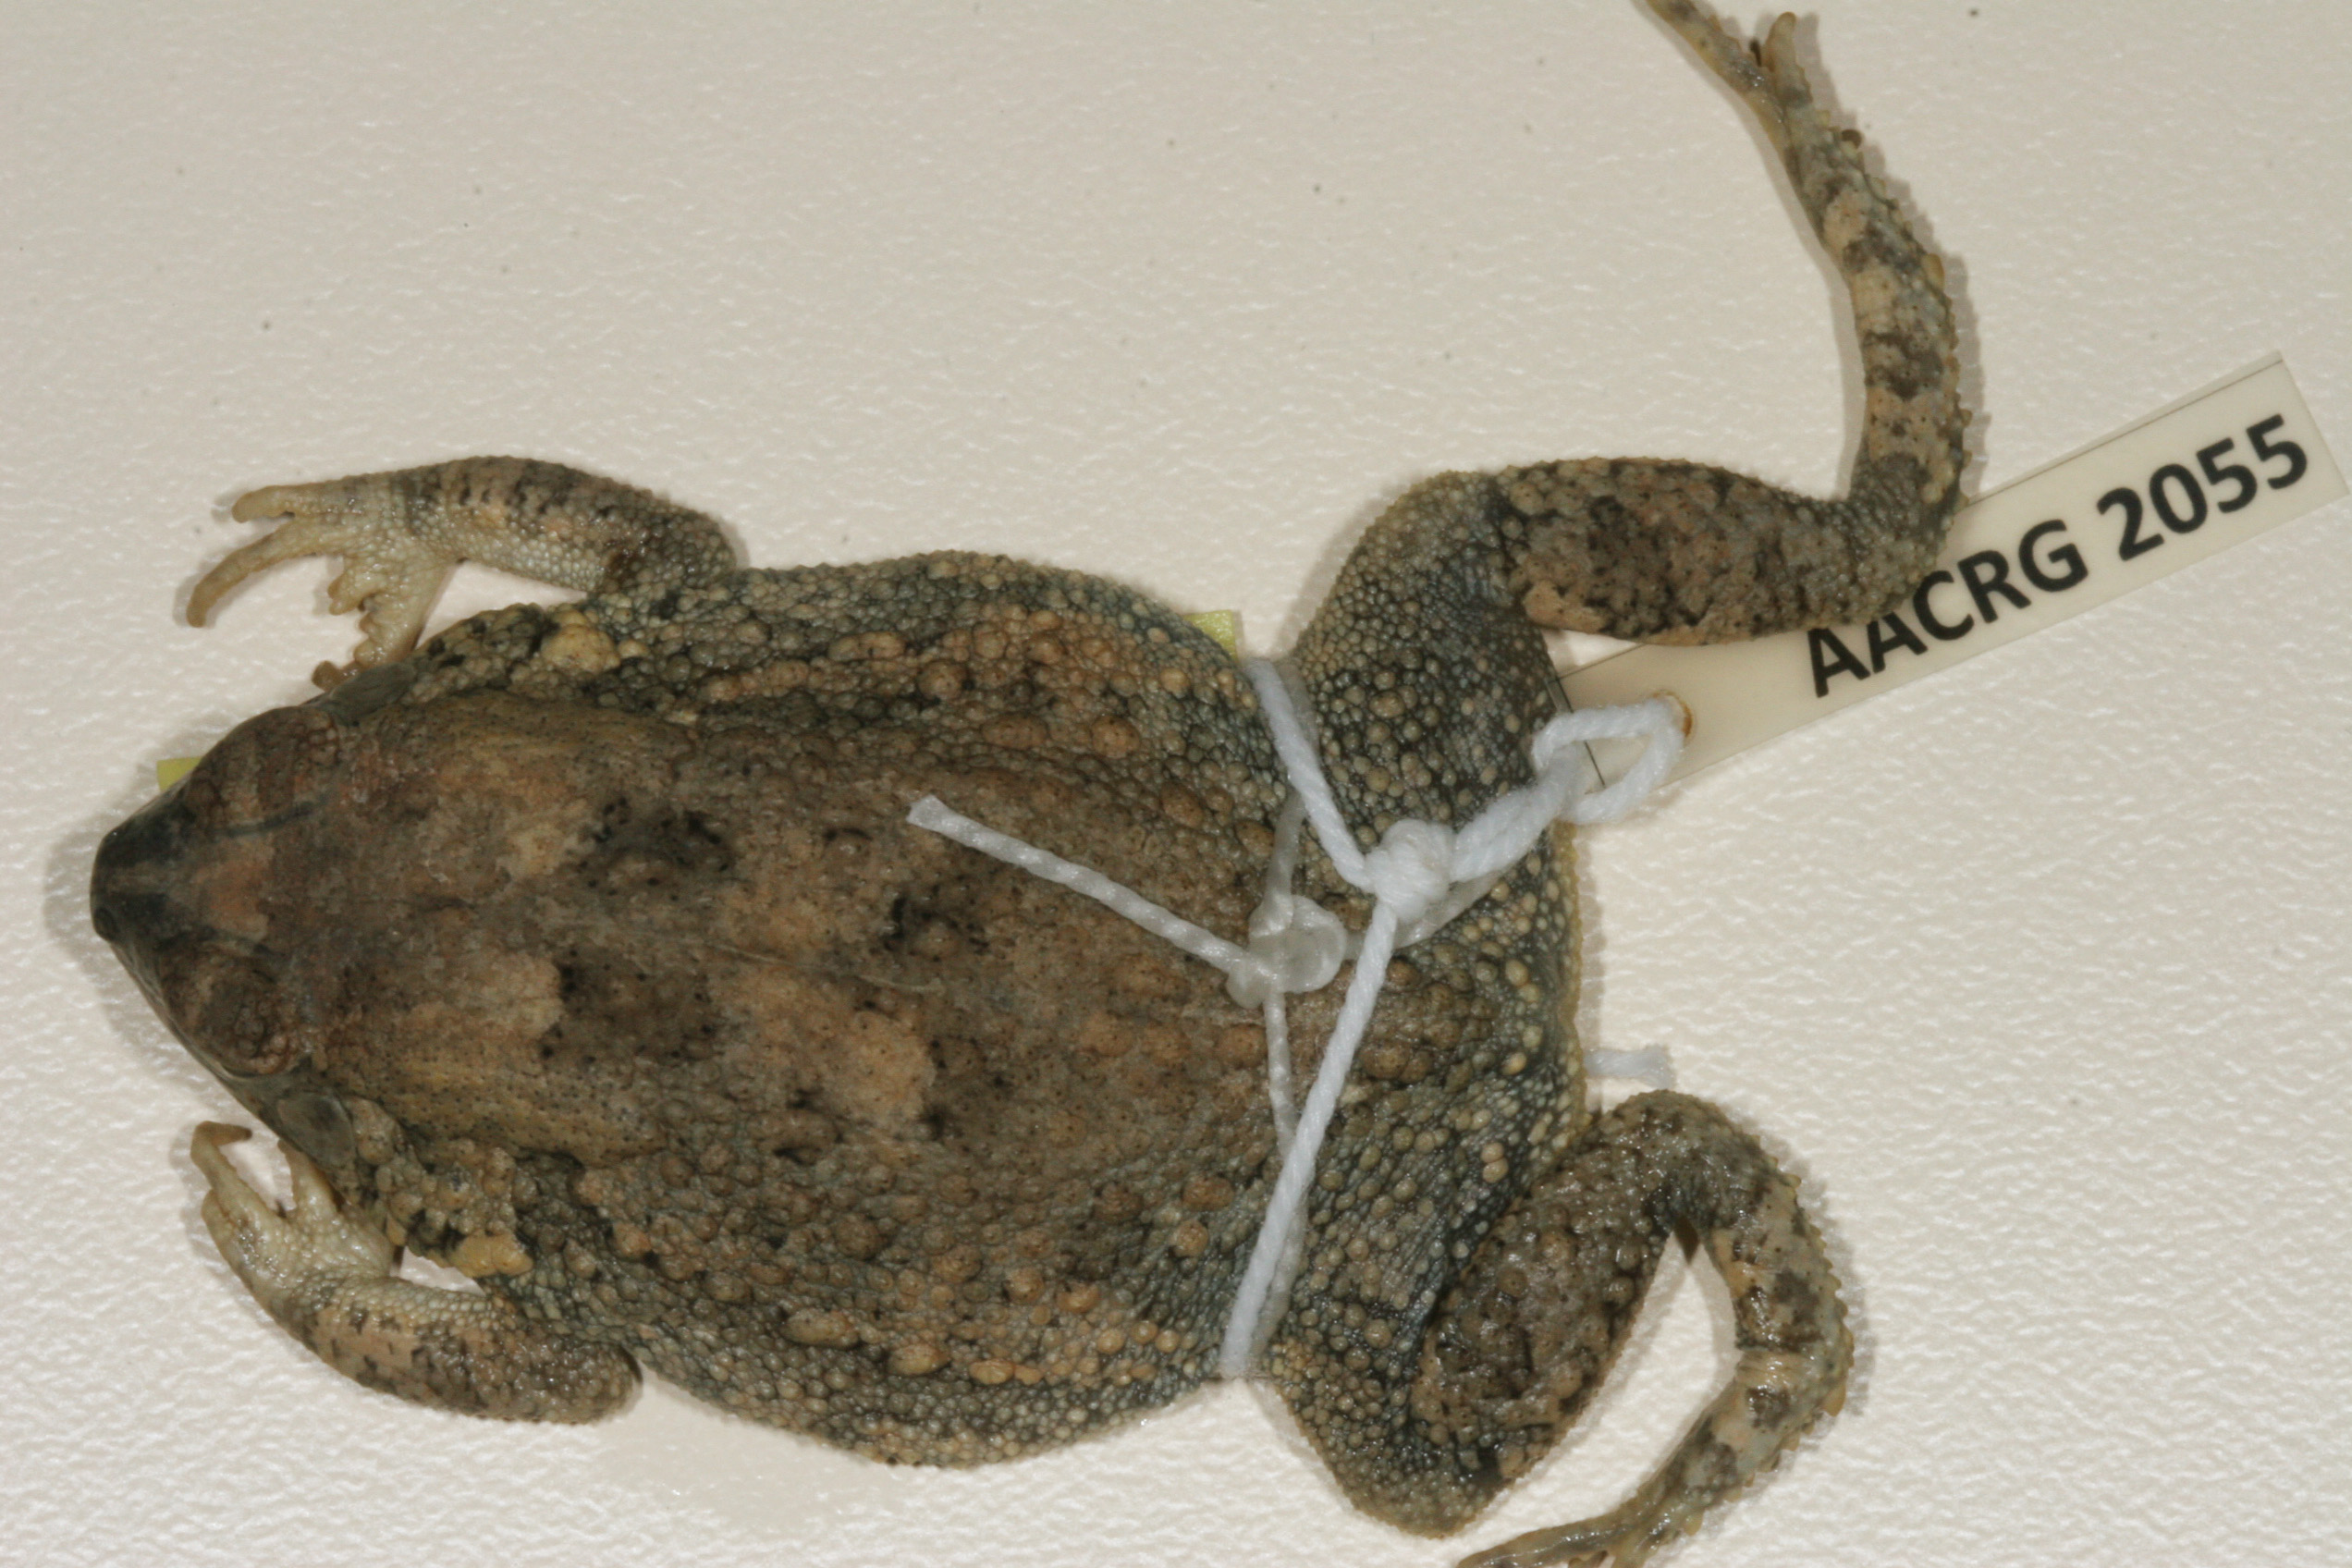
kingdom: Animalia
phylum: Chordata
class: Amphibia
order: Anura
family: Bufonidae
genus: Sclerophrys
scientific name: Sclerophrys regularis
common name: African common toad
